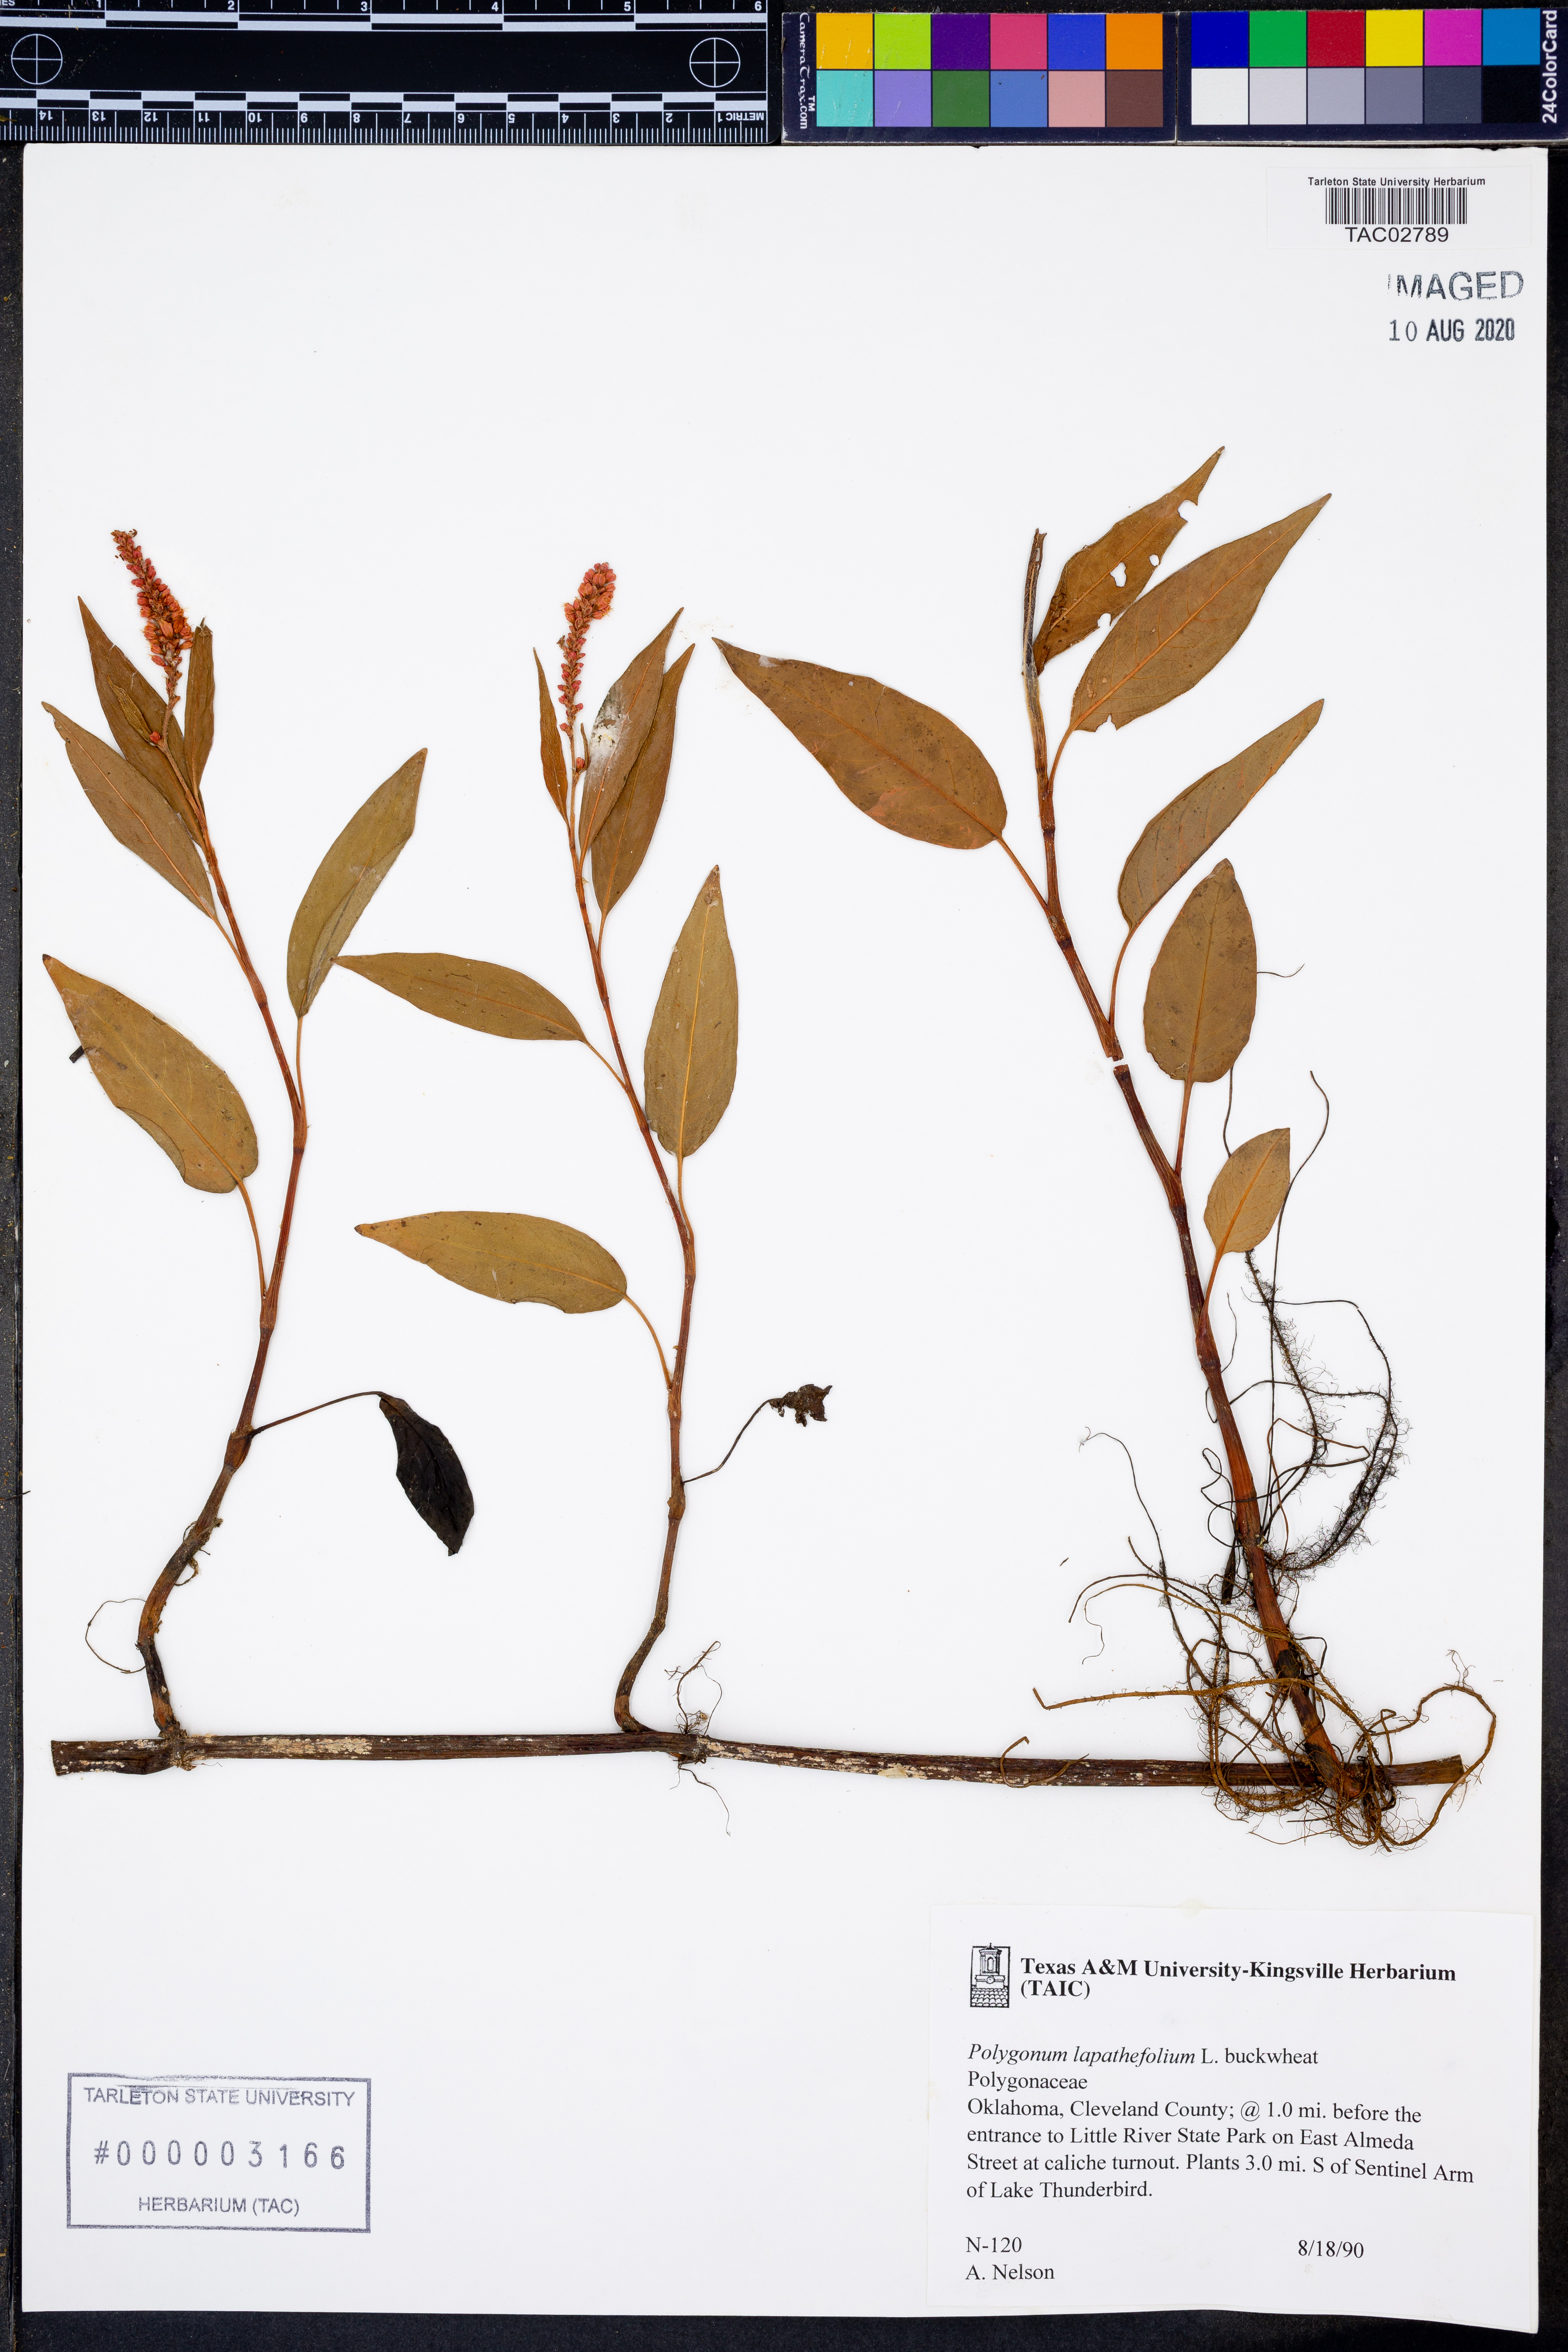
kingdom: Plantae
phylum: Tracheophyta
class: Magnoliopsida
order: Caryophyllales
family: Polygonaceae
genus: Persicaria
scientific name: Persicaria lapathifolia
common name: Curlytop knotweed
